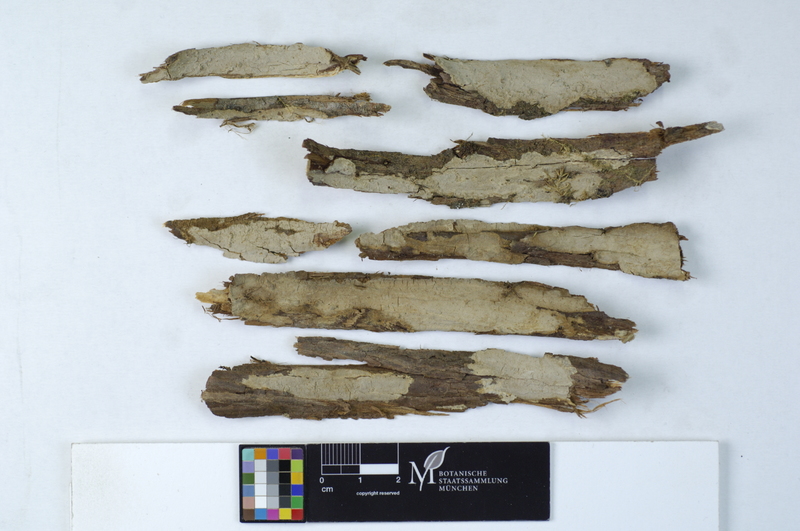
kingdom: Plantae
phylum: Tracheophyta
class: Pinopsida
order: Pinales
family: Cupressaceae
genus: Juniperus
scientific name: Juniperus
